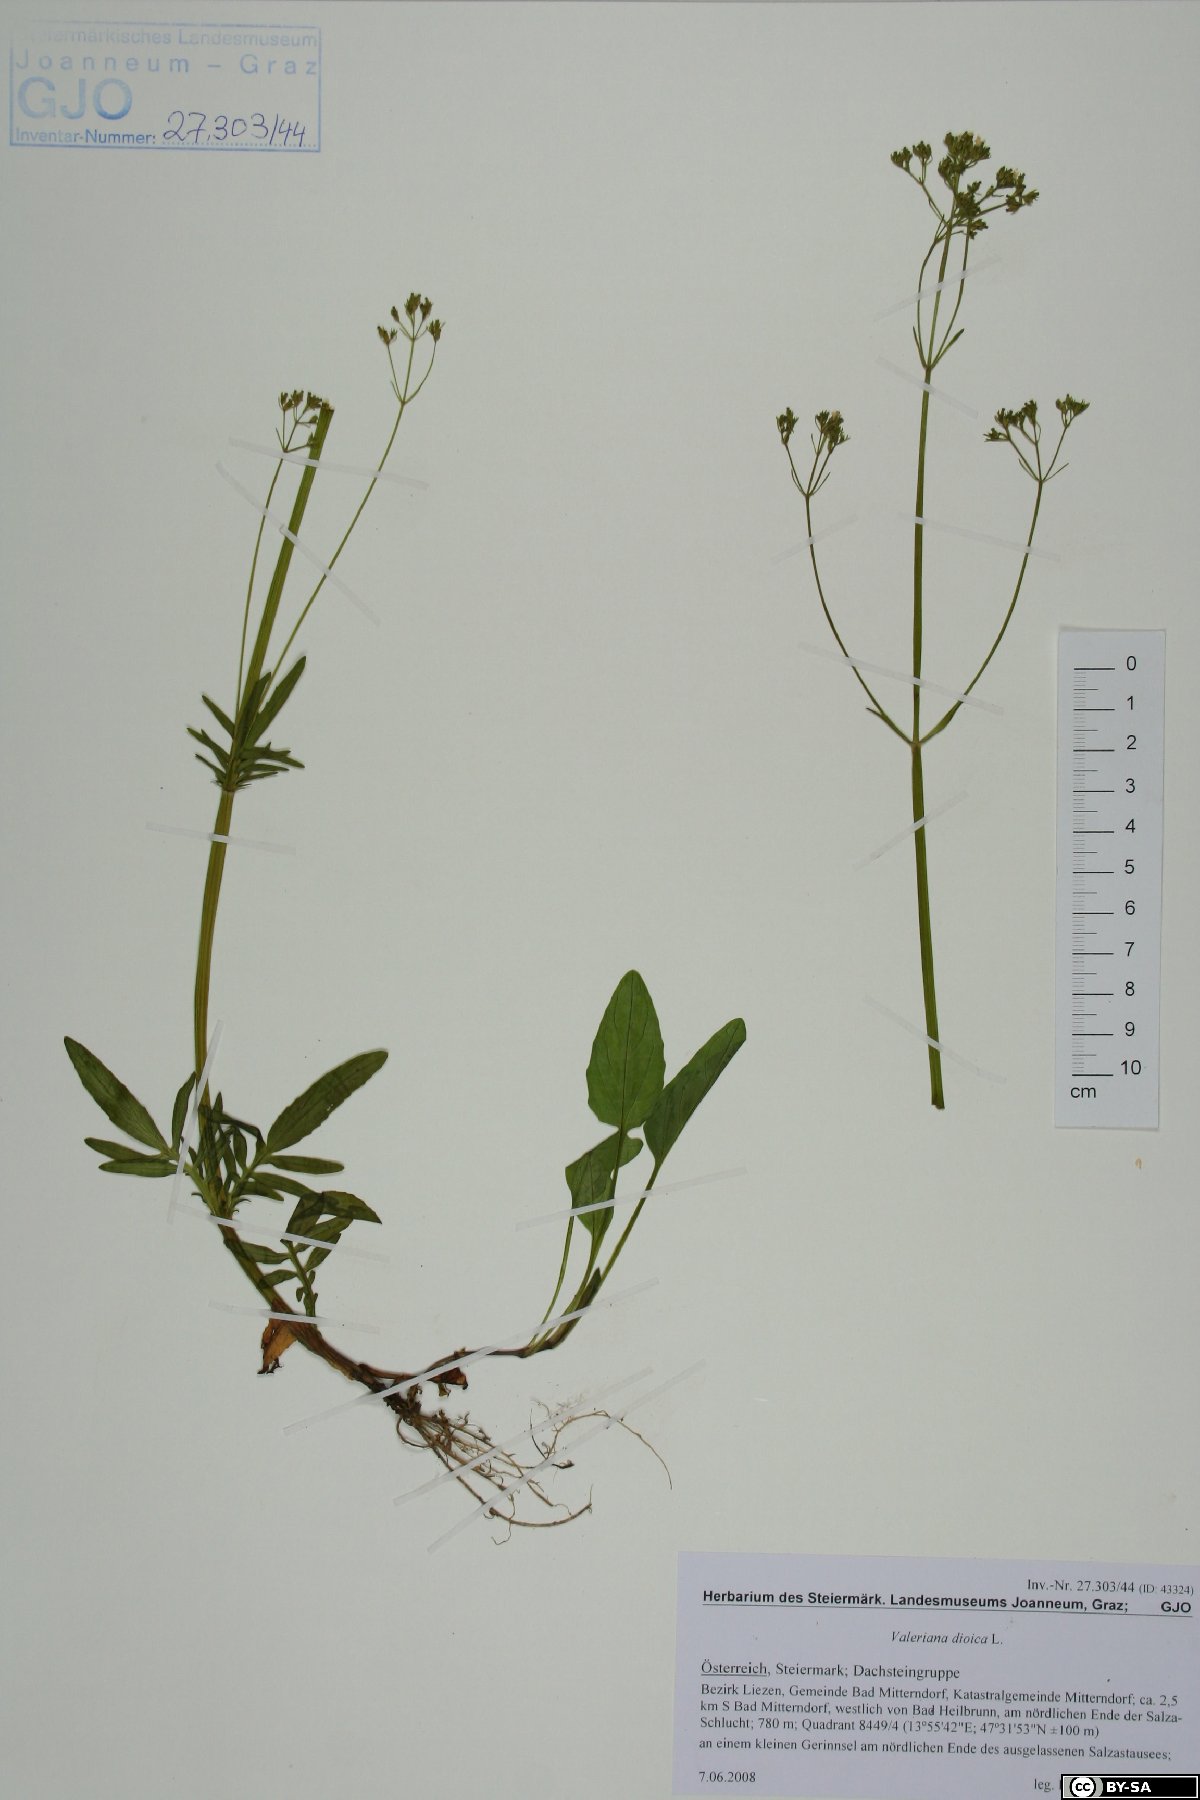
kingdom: Plantae
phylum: Tracheophyta
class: Magnoliopsida
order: Dipsacales
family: Caprifoliaceae
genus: Valeriana
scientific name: Valeriana dioica
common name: Marsh valerian
